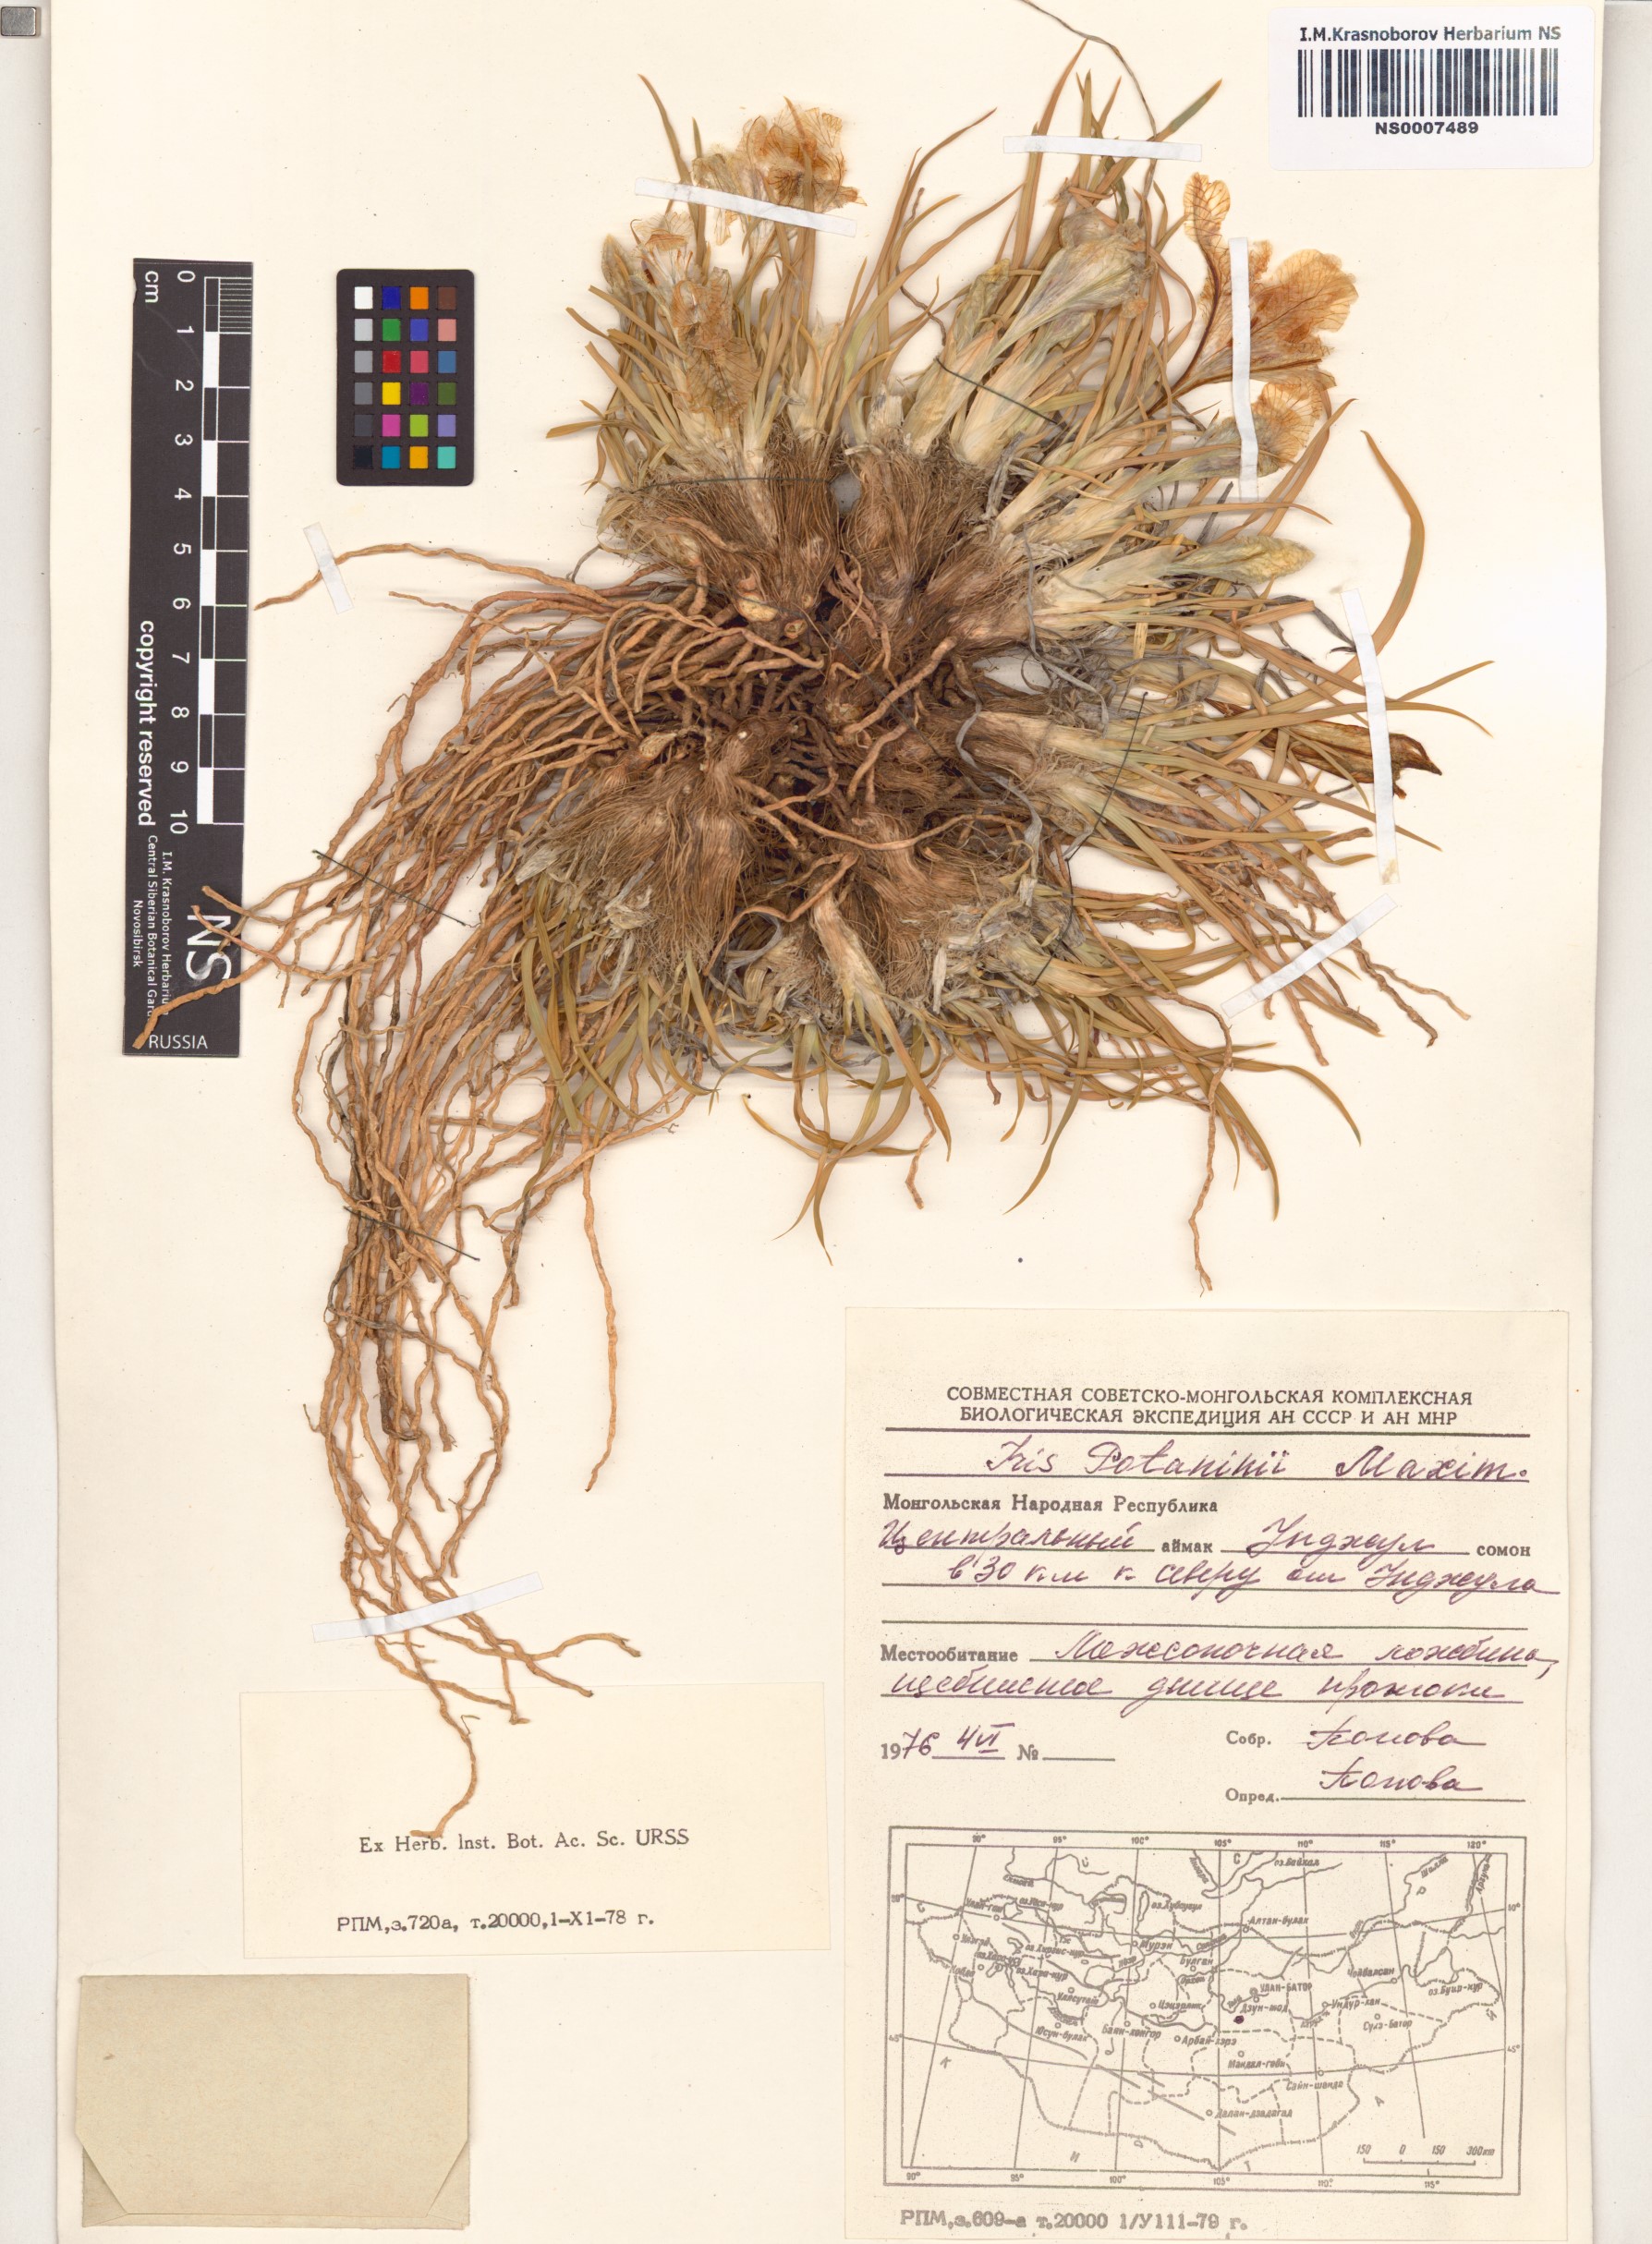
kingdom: Plantae
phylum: Tracheophyta
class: Liliopsida
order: Asparagales
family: Iridaceae
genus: Iris
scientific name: Iris potaninii
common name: Curl-sheath iris
